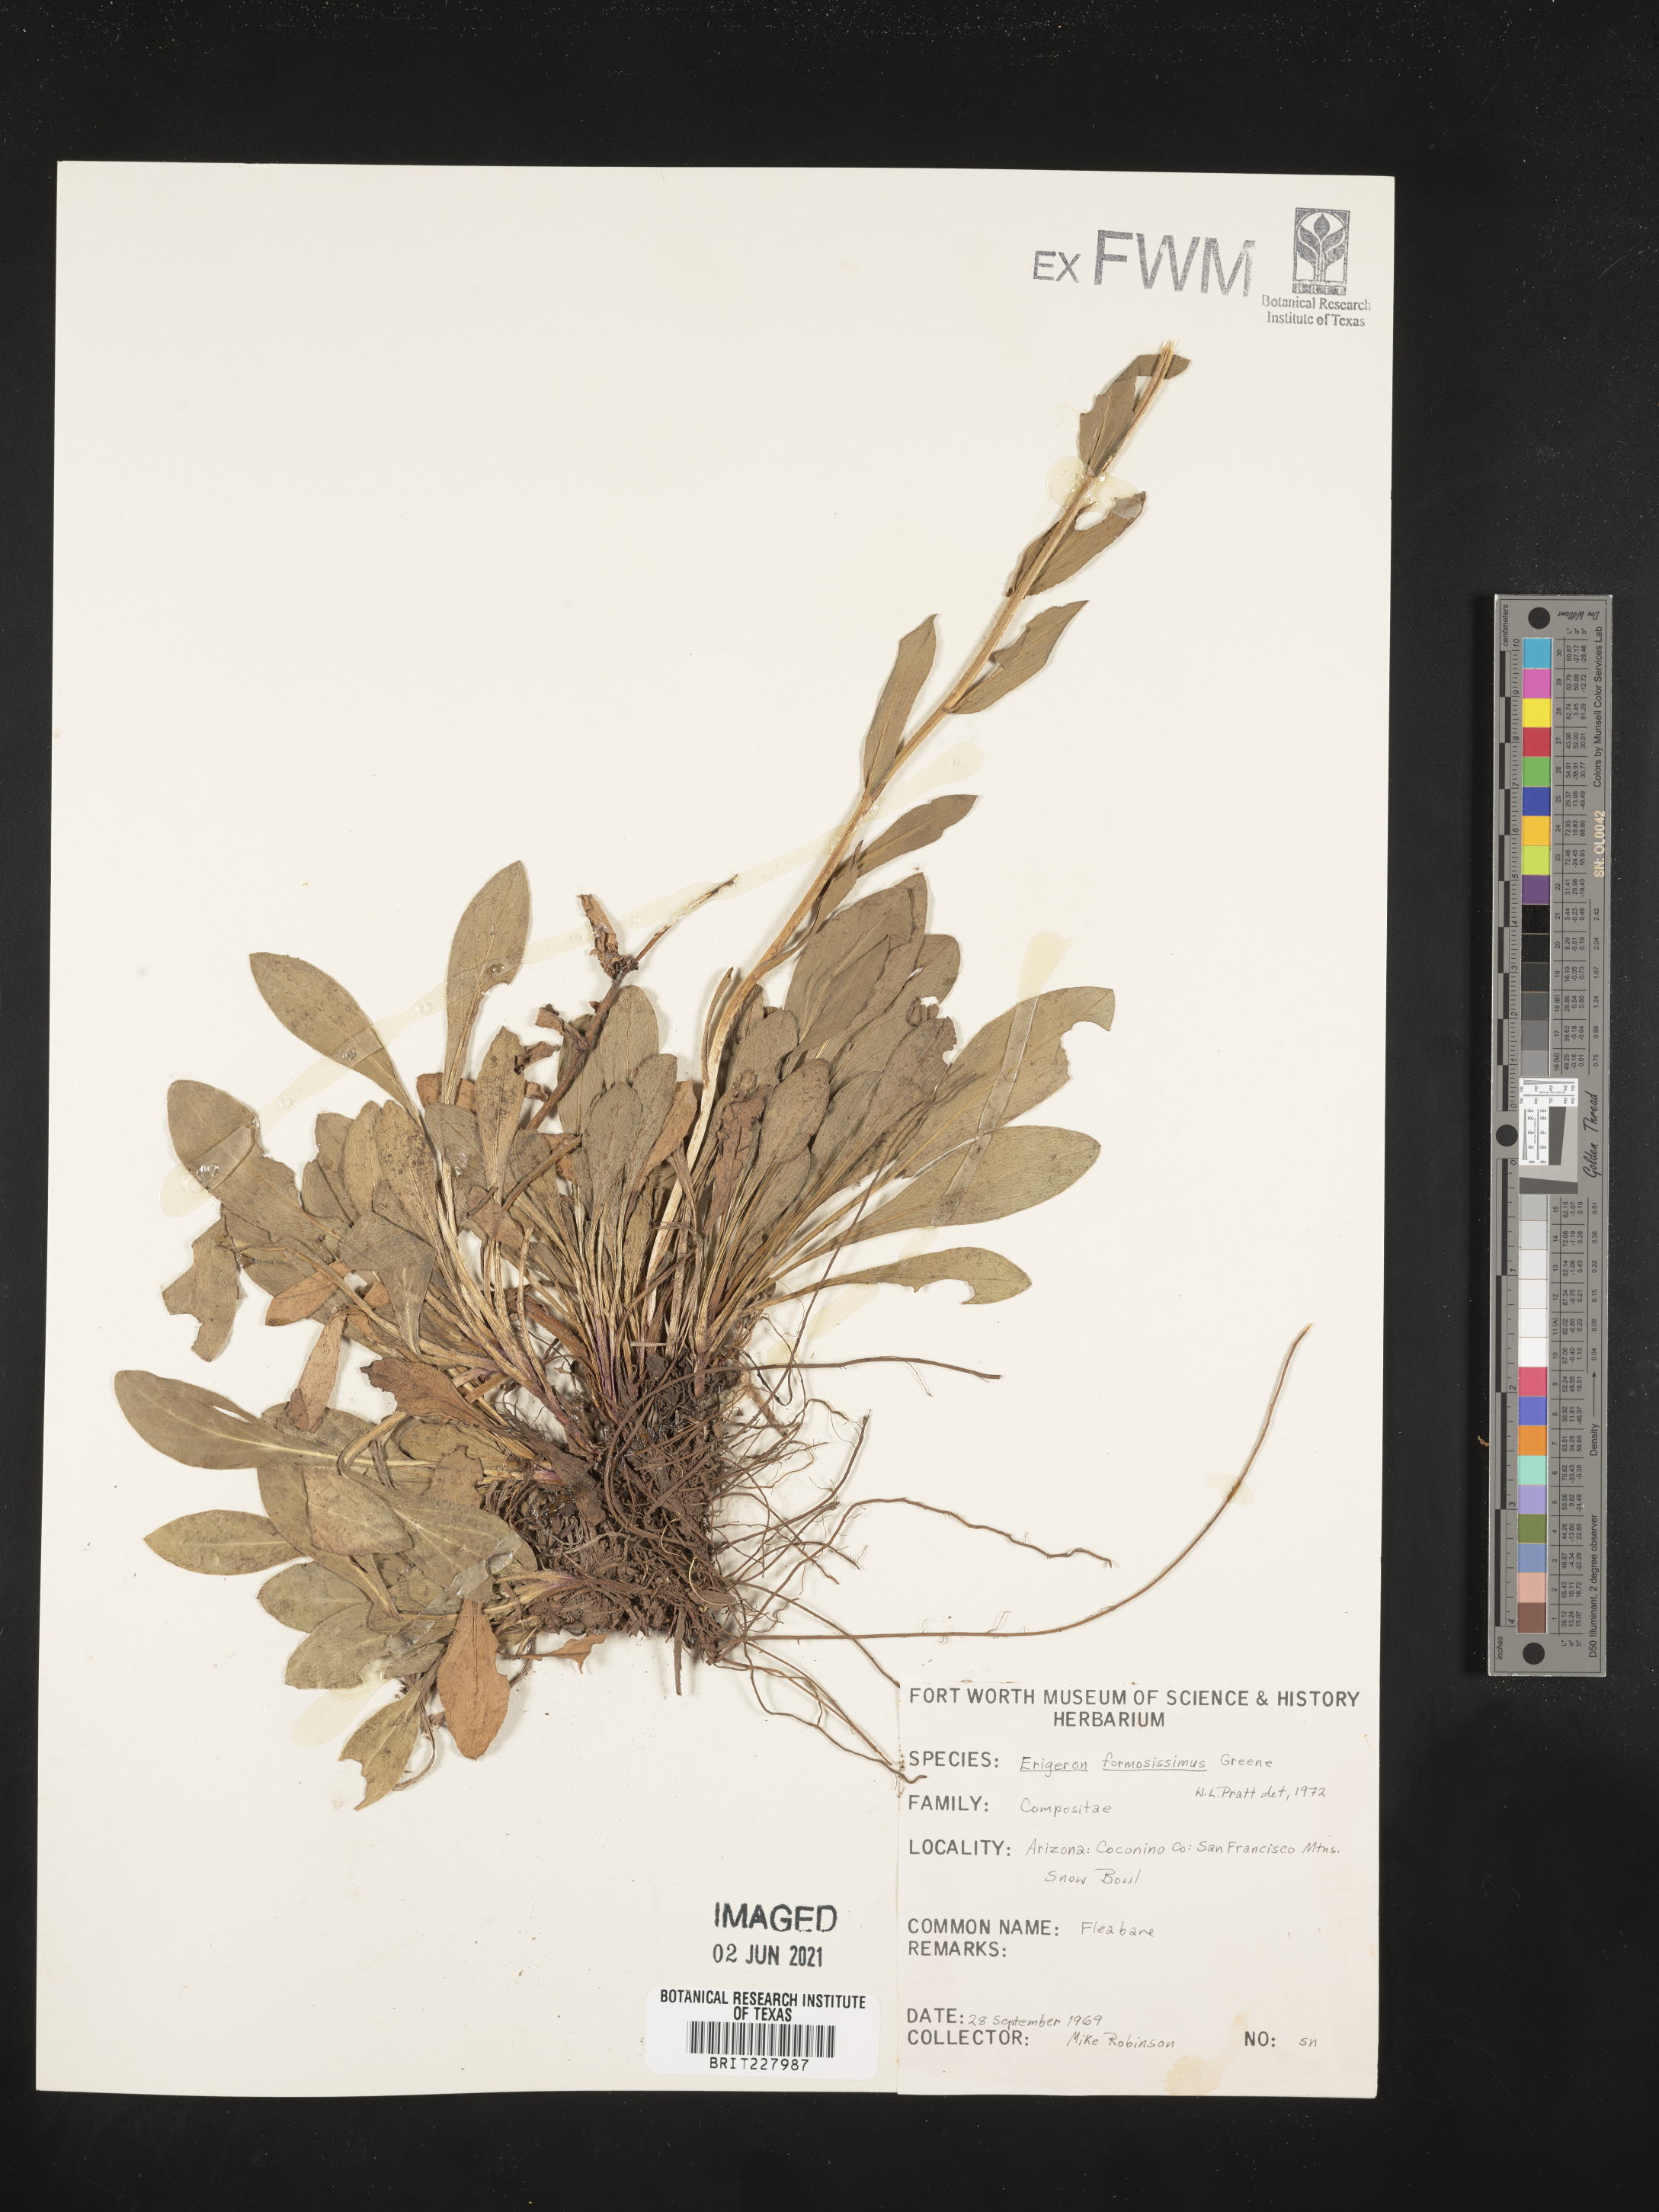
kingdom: Plantae
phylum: Tracheophyta
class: Magnoliopsida
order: Asterales
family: Asteraceae
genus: Erigeron
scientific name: Erigeron formosissimus
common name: Beautiful fleabane
